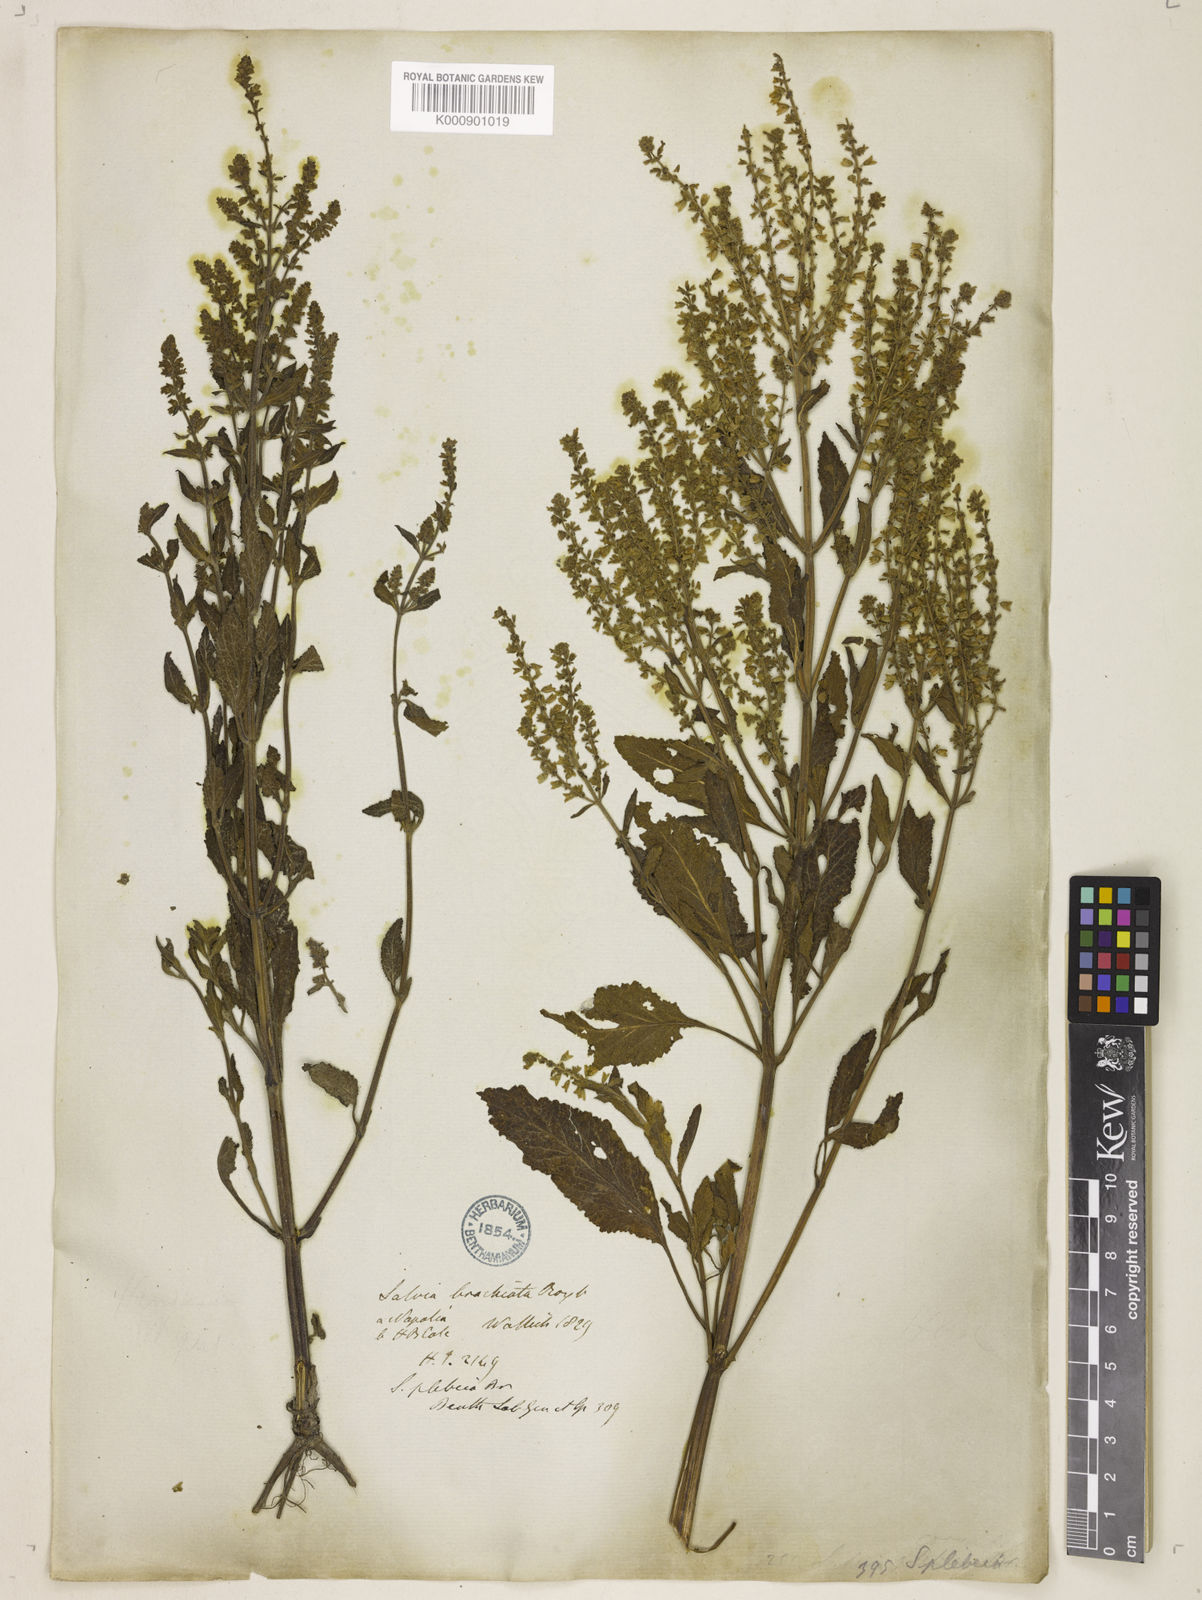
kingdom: Plantae
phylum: Tracheophyta
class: Magnoliopsida
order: Lamiales
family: Lamiaceae
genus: Salvia
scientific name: Salvia plebeia
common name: Australian sage
